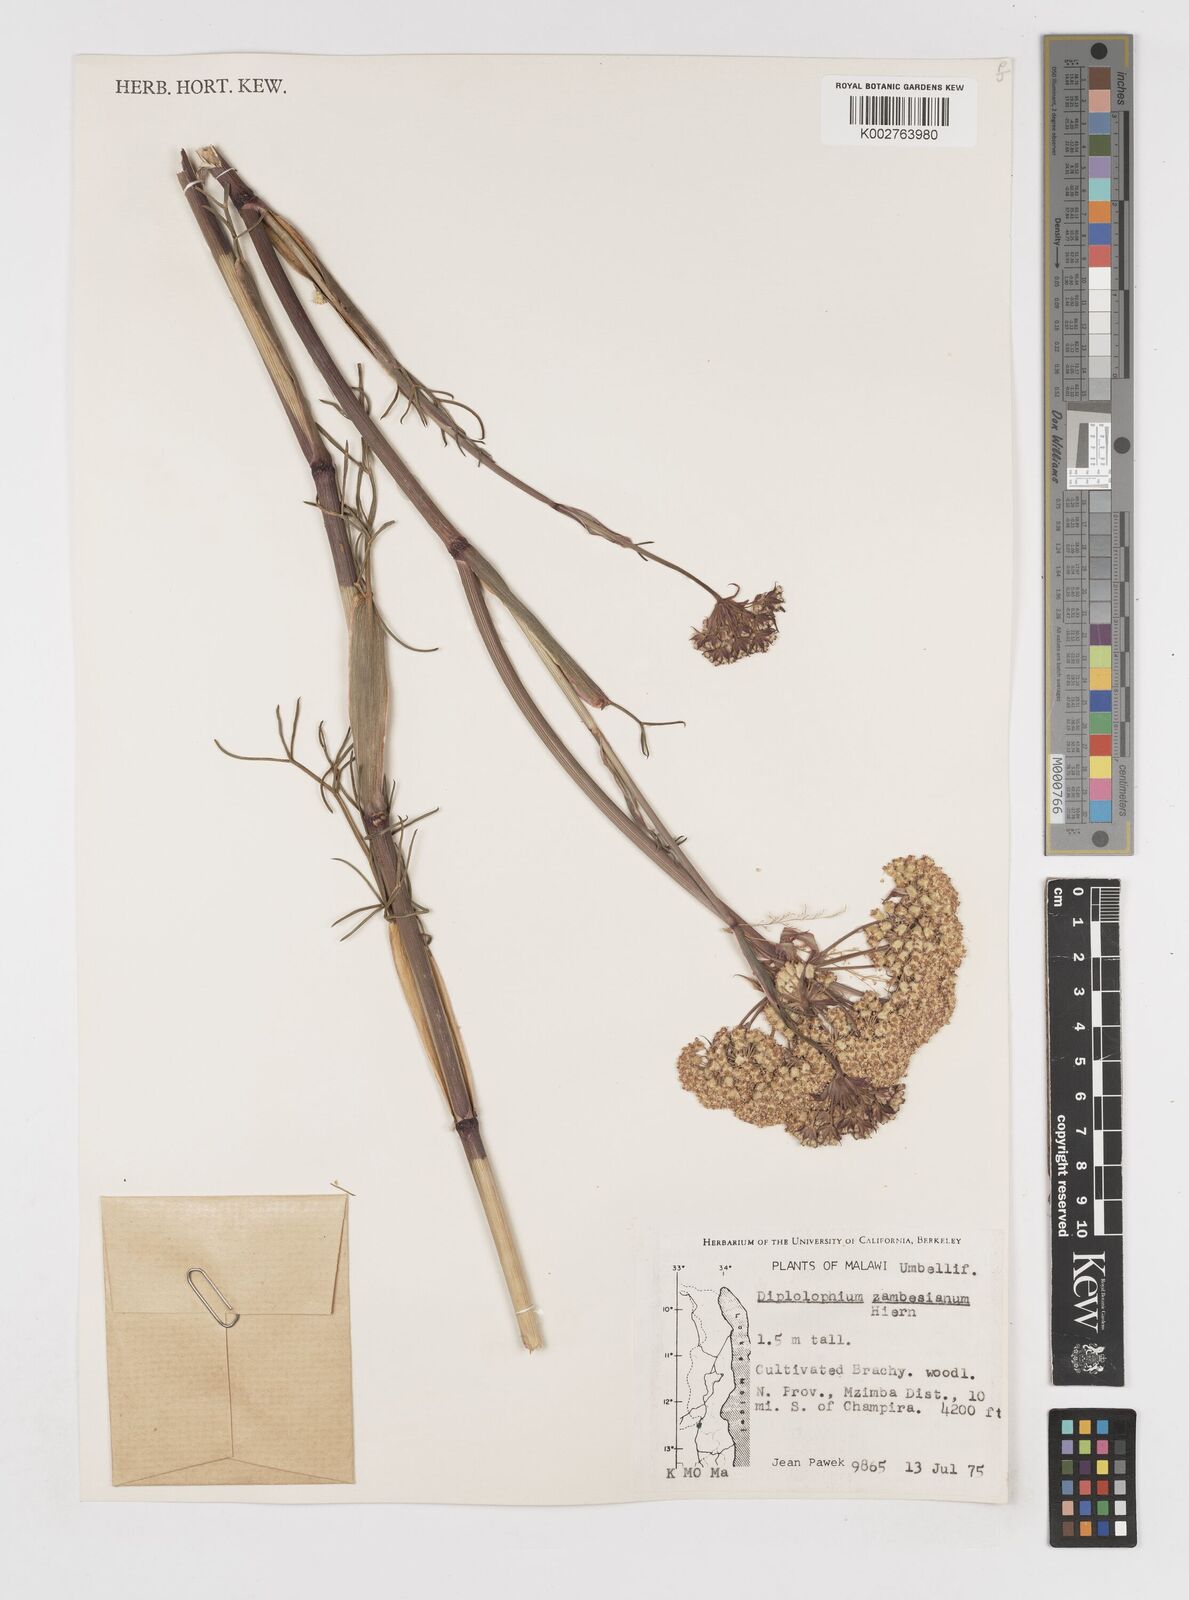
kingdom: Plantae
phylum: Tracheophyta
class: Magnoliopsida
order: Apiales
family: Apiaceae
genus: Diplolophium
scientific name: Diplolophium zambesianum
